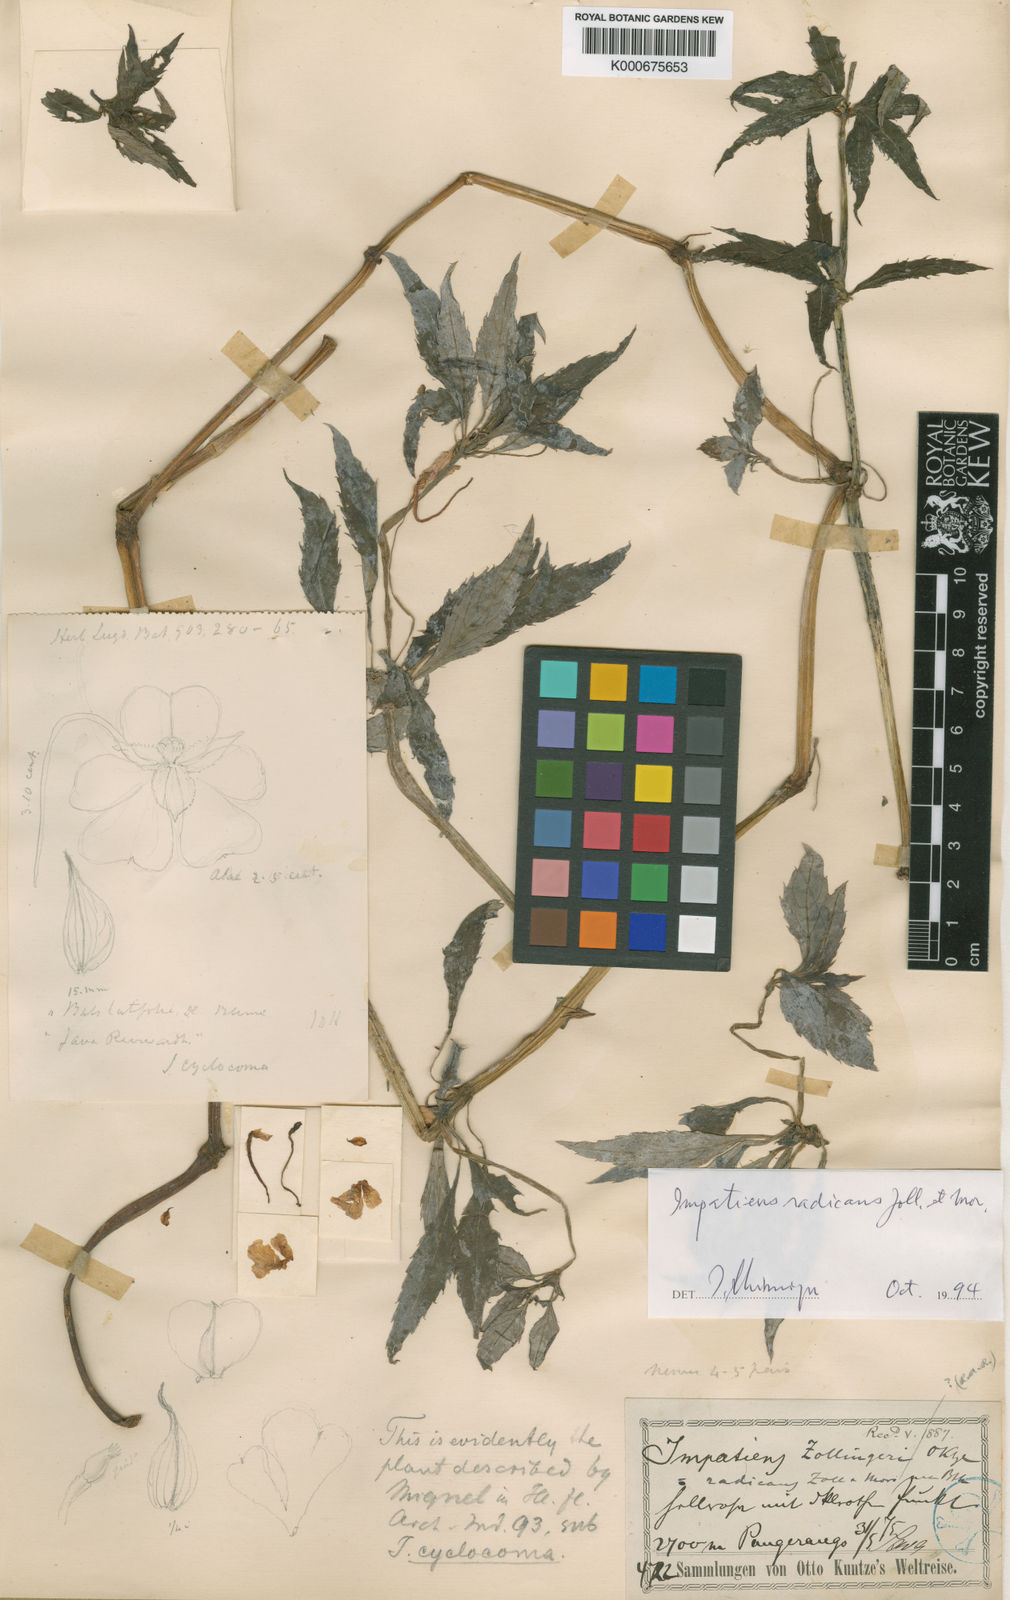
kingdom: Plantae
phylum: Tracheophyta
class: Magnoliopsida
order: Ericales
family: Balsaminaceae
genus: Impatiens
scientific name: Impatiens cyclocoma
